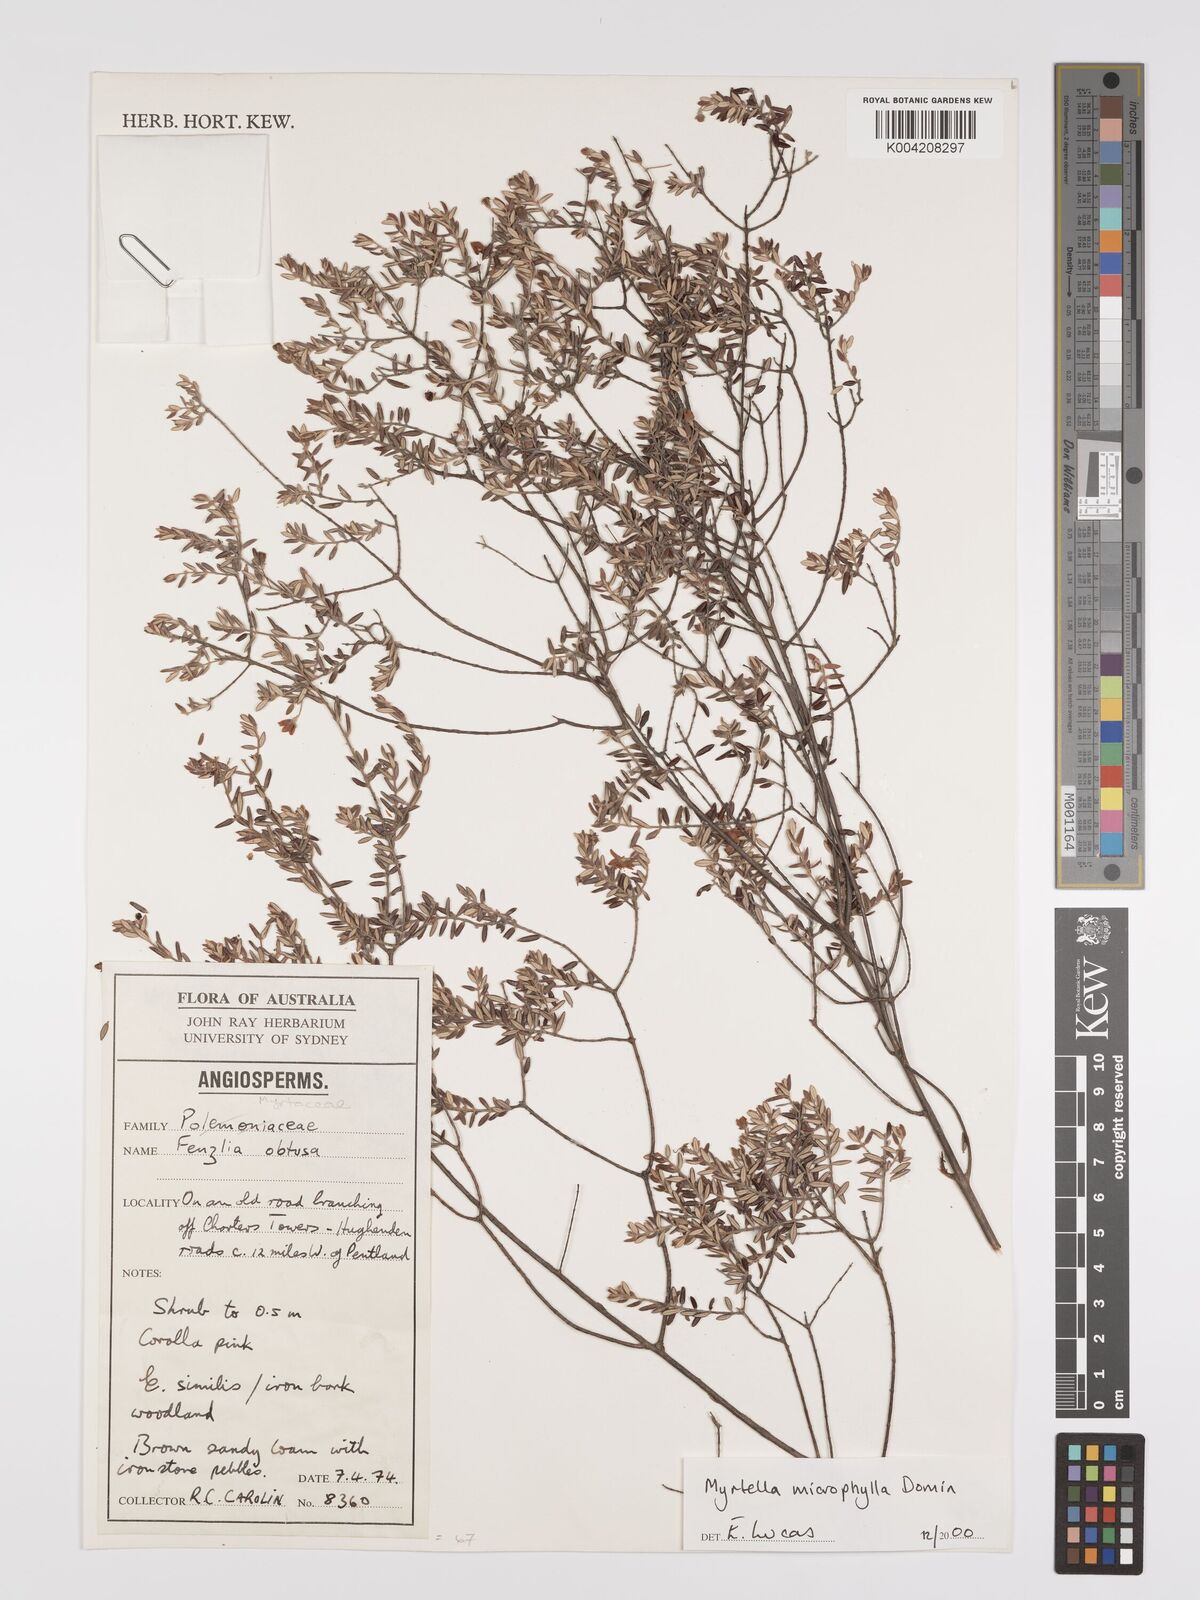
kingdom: Plantae
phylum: Tracheophyta
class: Magnoliopsida
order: Myrtales
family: Myrtaceae
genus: Lithomyrtus
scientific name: Lithomyrtus microphylla
